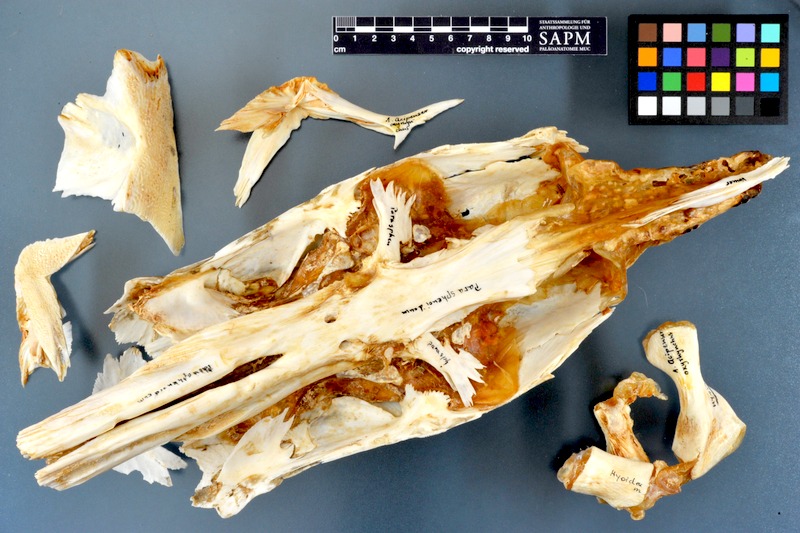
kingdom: Animalia
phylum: Chordata
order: Acipenseriformes
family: Acipenseridae
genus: Acipenser
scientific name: Acipenser oxyrinchus
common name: Atlantic sturgeon
